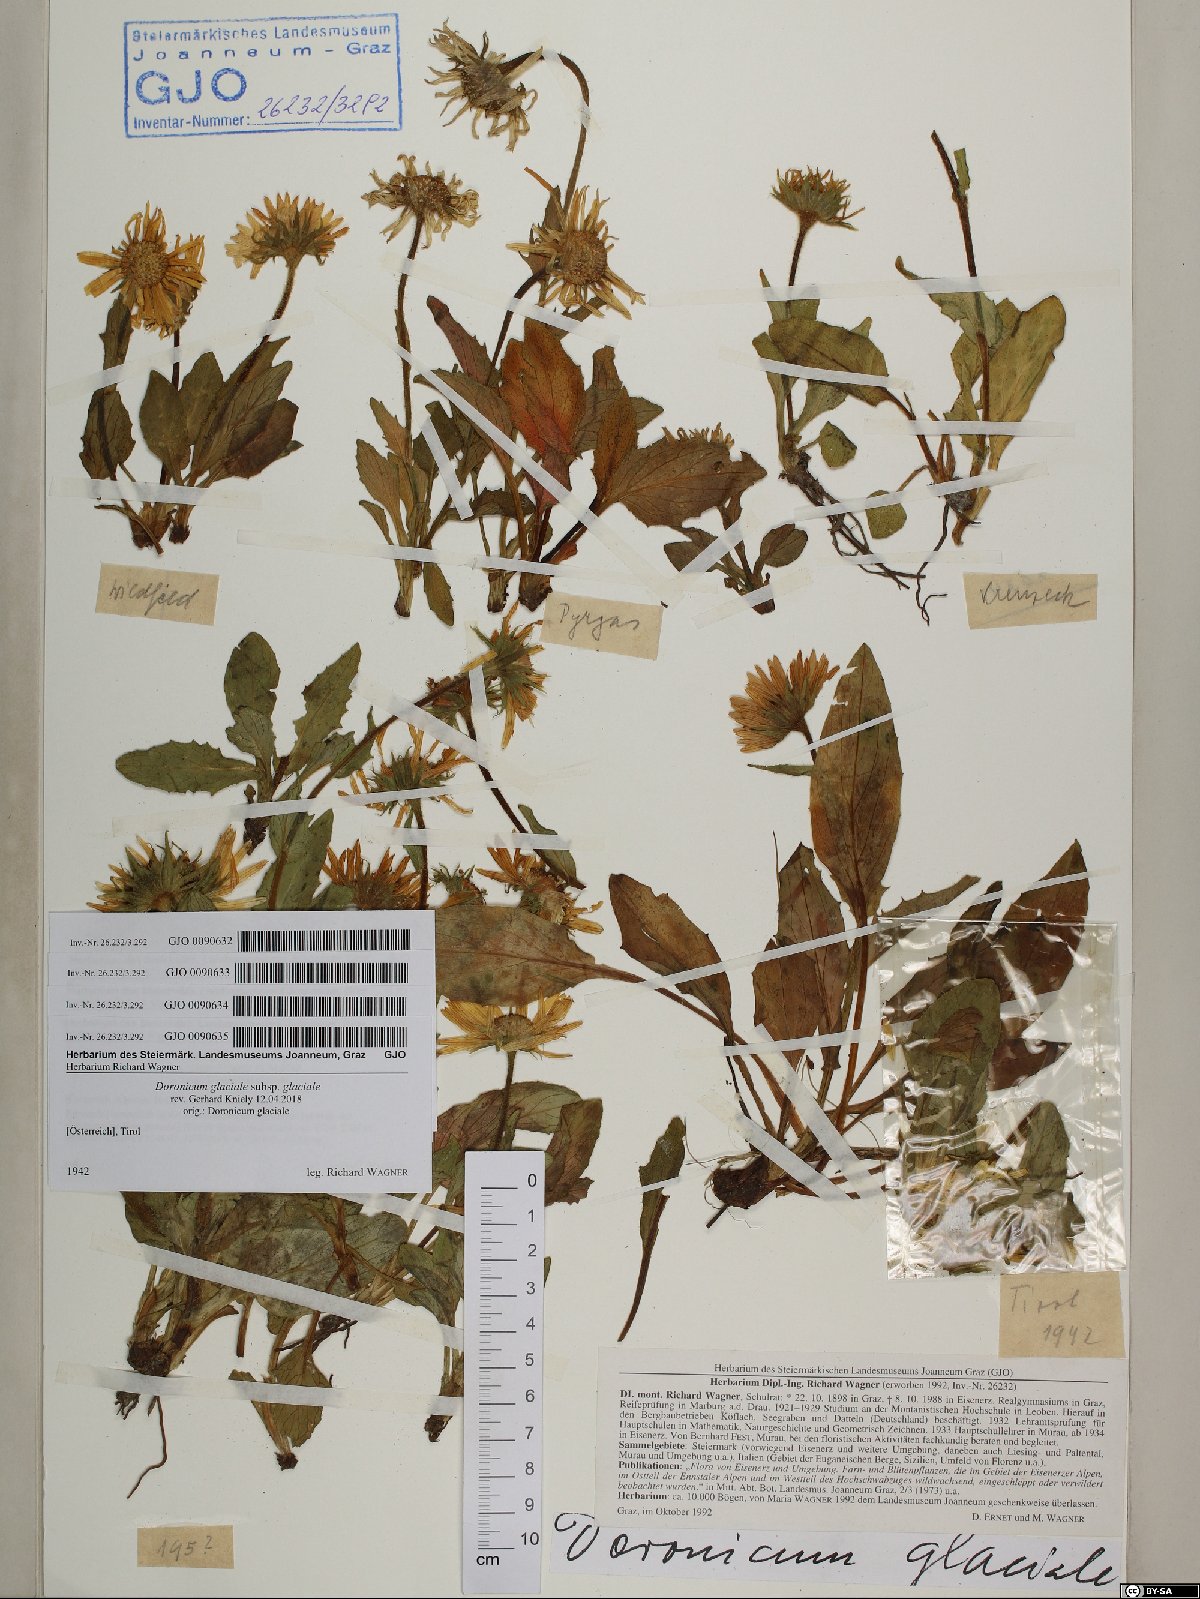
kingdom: Plantae
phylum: Tracheophyta
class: Magnoliopsida
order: Asterales
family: Asteraceae
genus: Doronicum
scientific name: Doronicum glaciale
